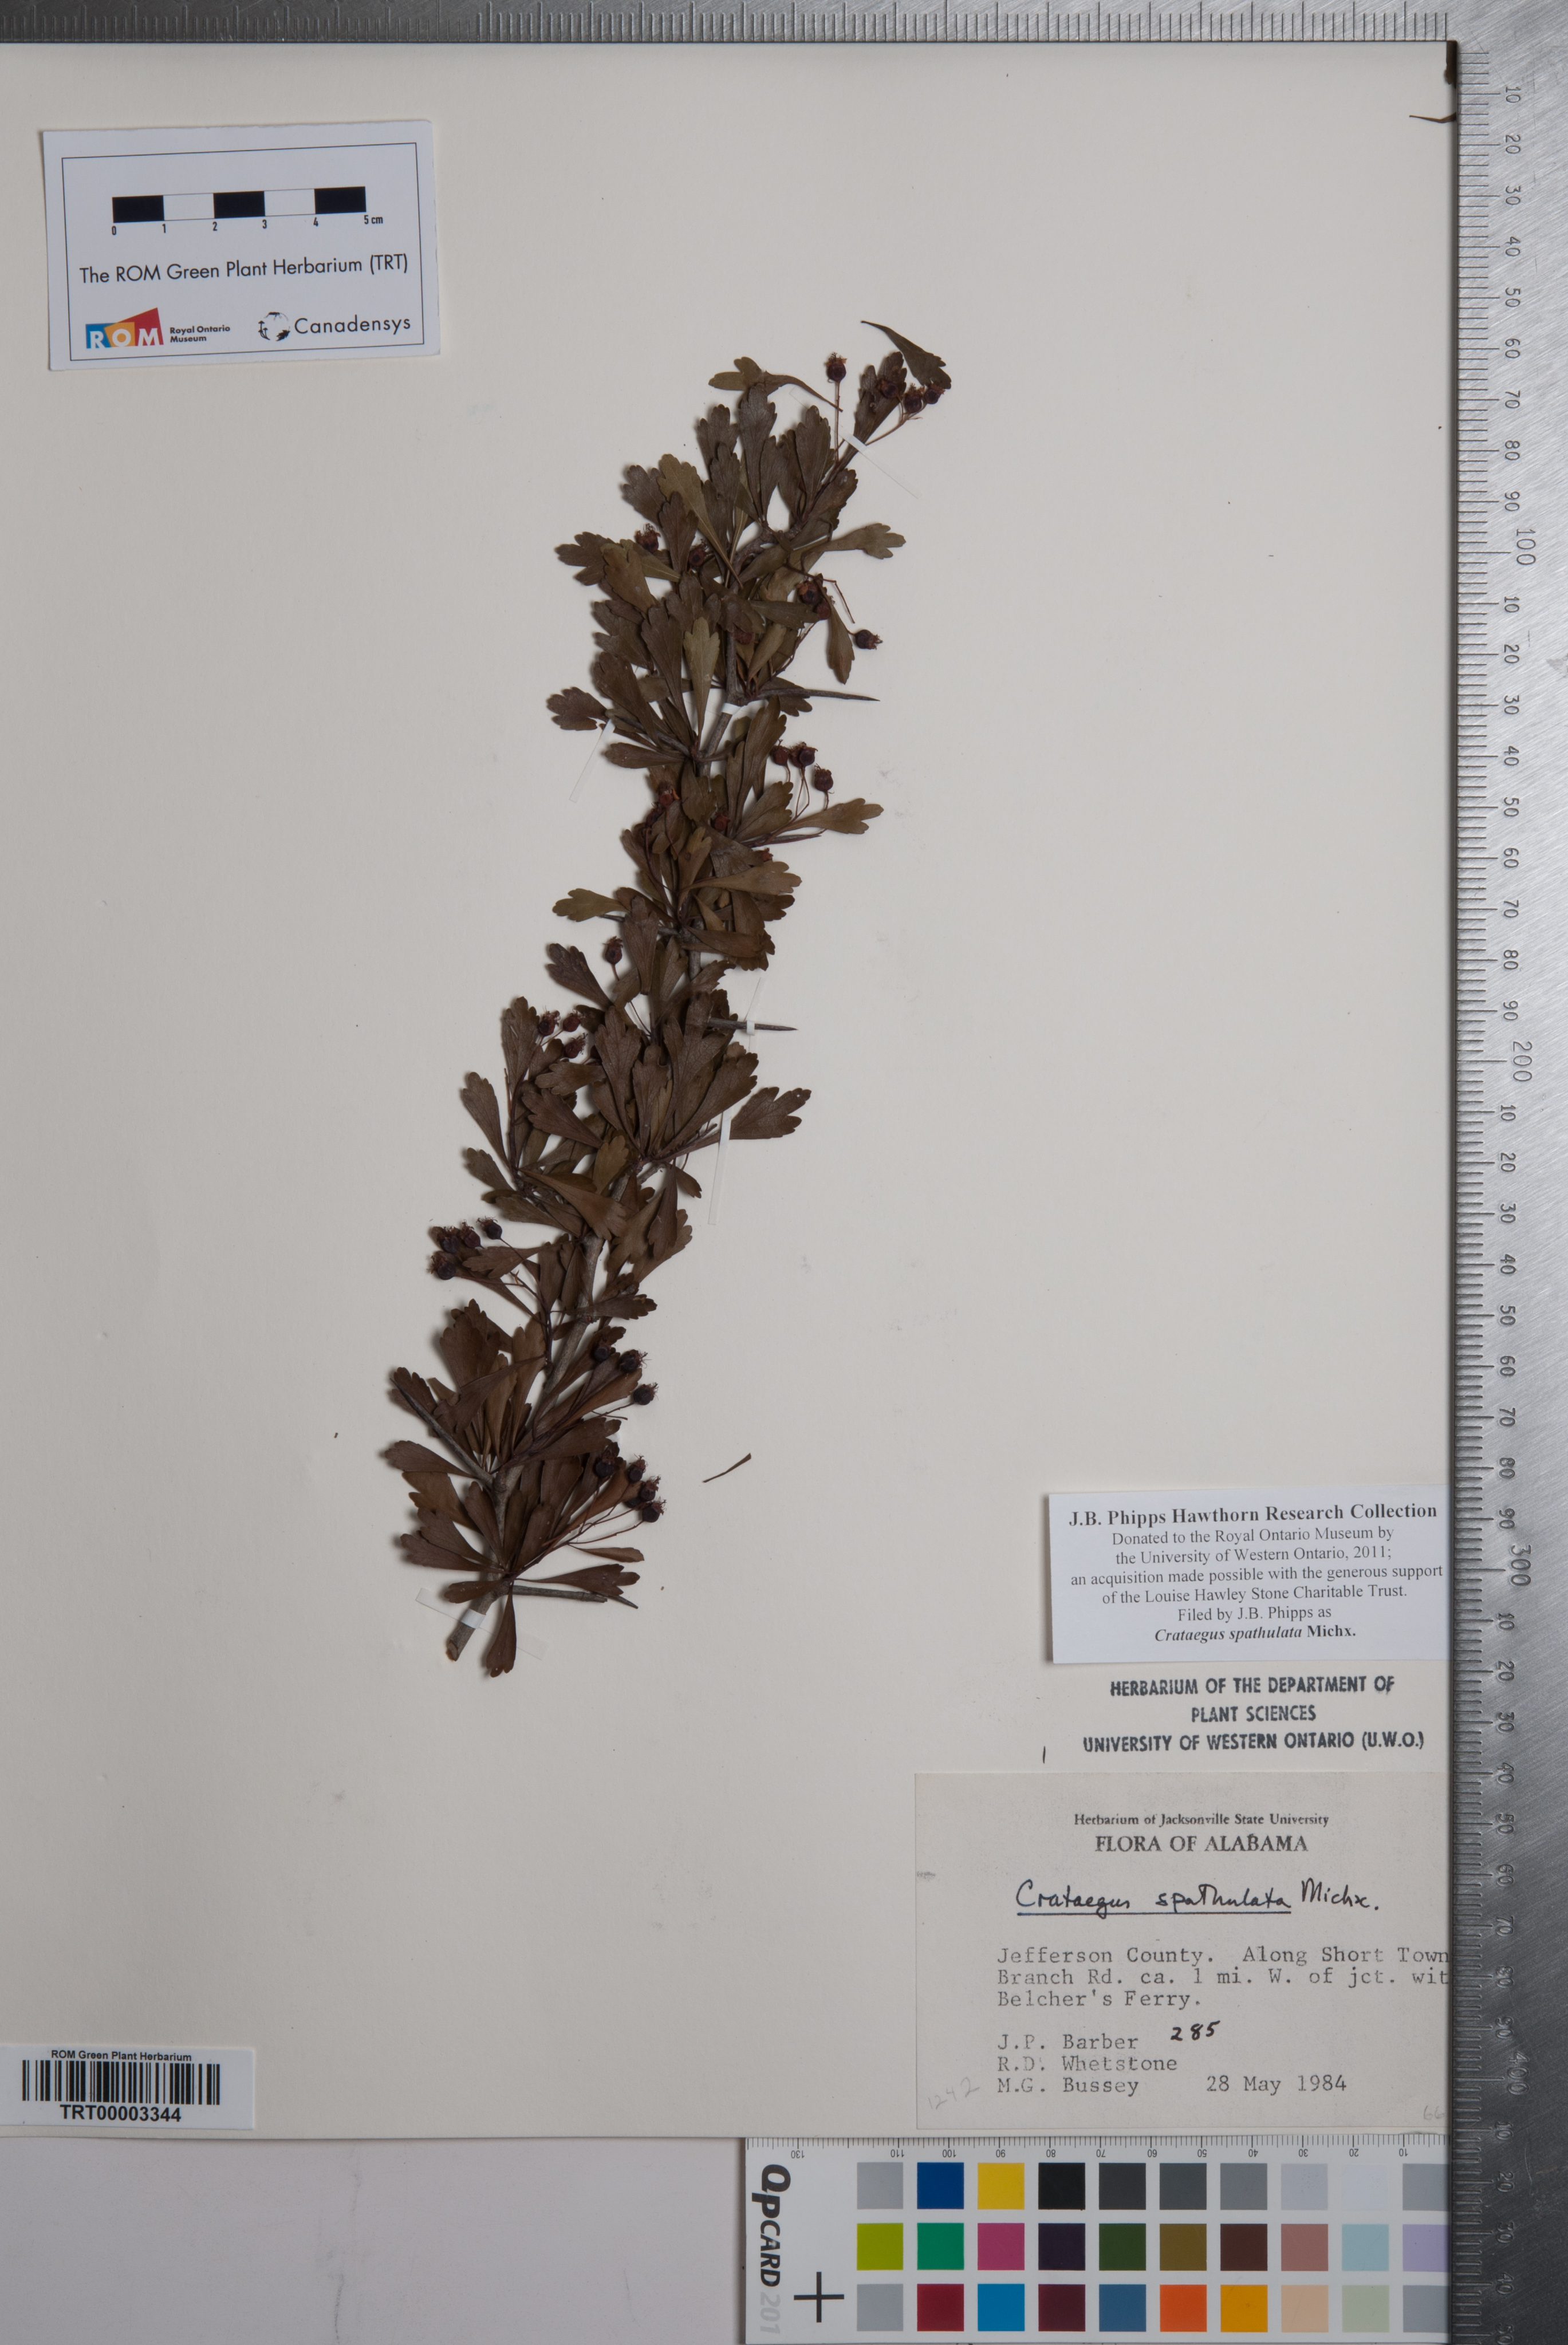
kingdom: Plantae
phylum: Tracheophyta
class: Magnoliopsida
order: Rosales
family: Rosaceae
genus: Crataegus
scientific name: Crataegus spathulata
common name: Littlehip hawthorn
